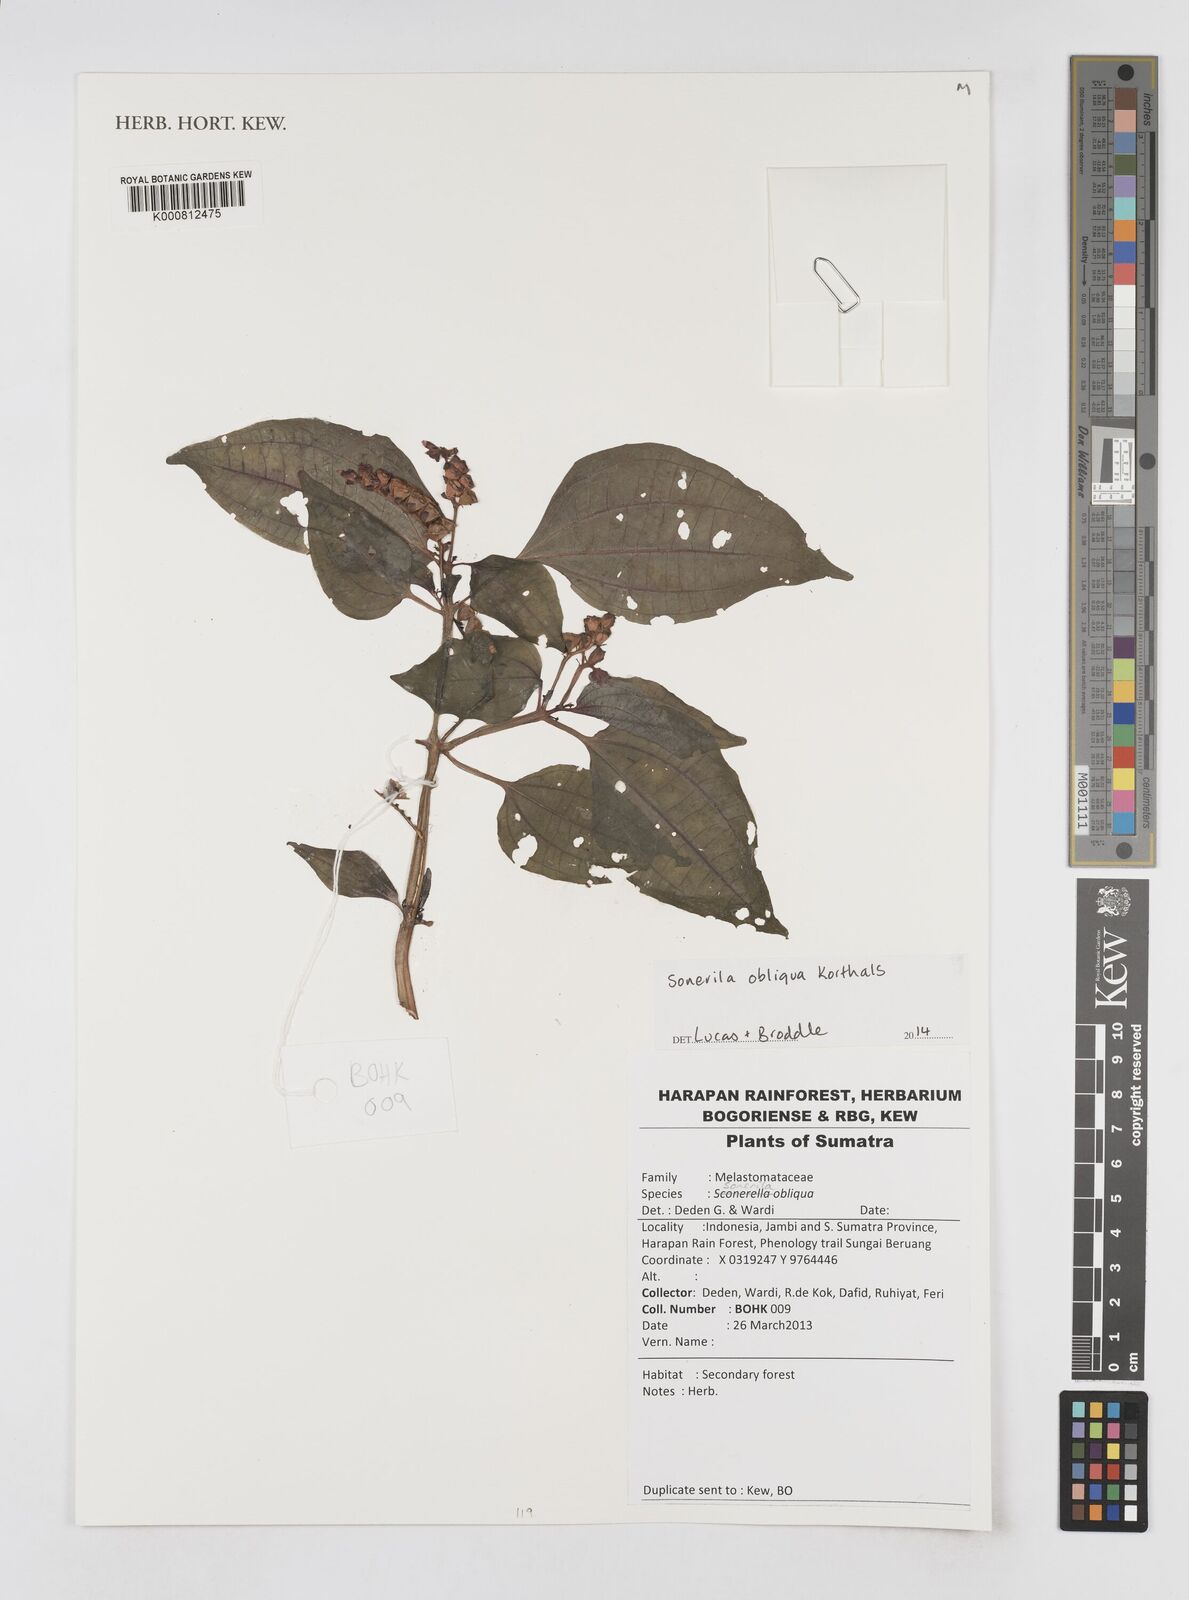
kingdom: Plantae
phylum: Tracheophyta
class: Magnoliopsida
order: Myrtales
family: Melastomataceae
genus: Sonerila
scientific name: Sonerila obliqua
